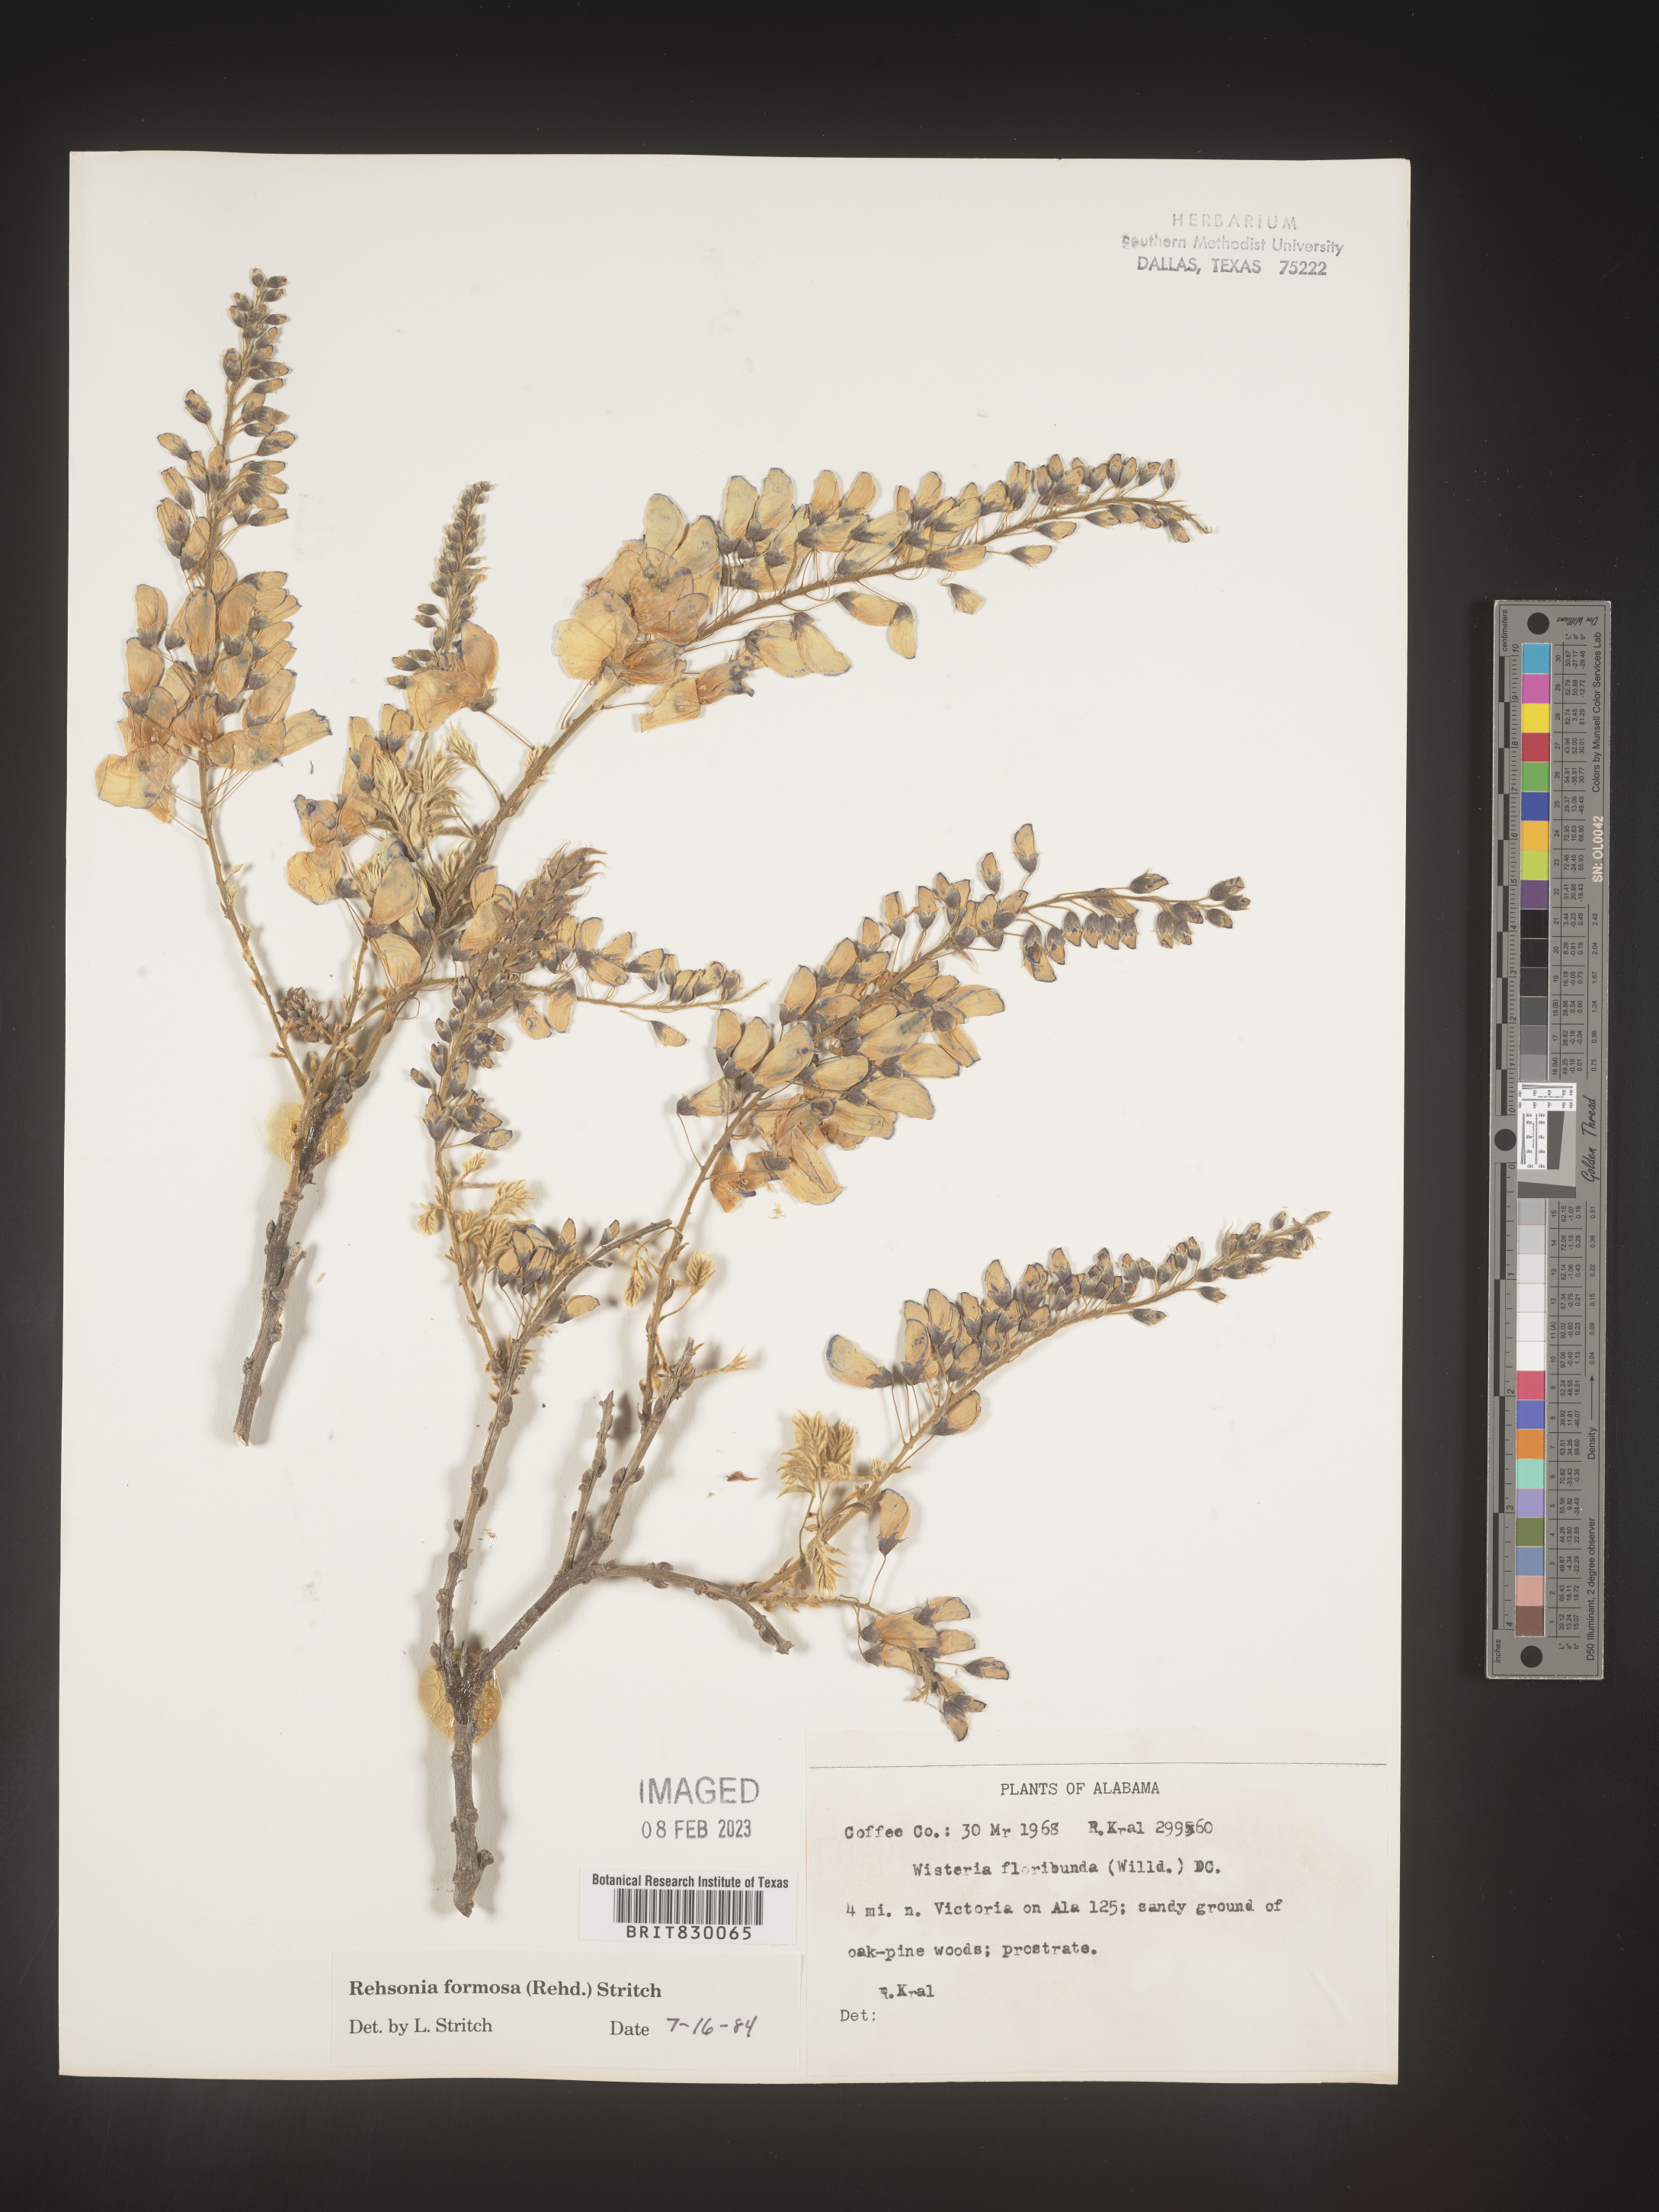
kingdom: Plantae
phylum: Tracheophyta
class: Magnoliopsida
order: Fabales
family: Fabaceae
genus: Wisteria
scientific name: Wisteria
